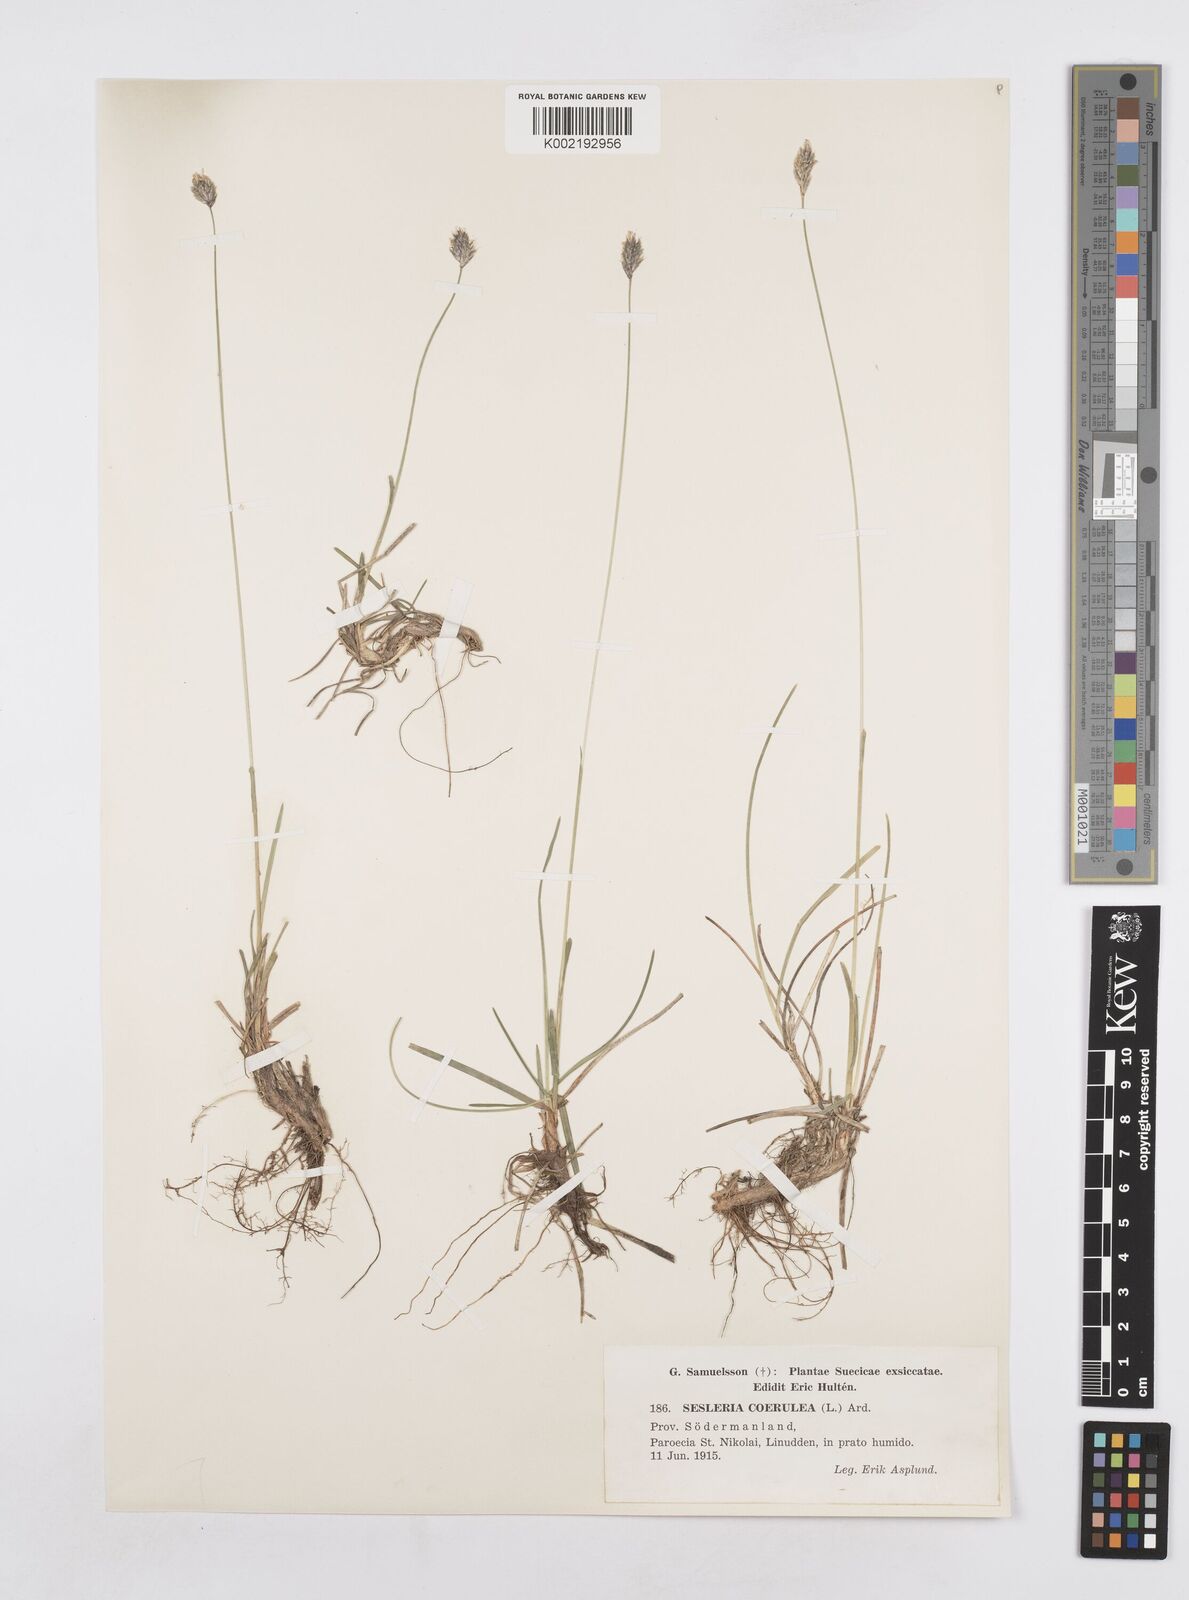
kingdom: Plantae
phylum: Tracheophyta
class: Liliopsida
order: Poales
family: Poaceae
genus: Sesleria
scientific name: Sesleria caerulea
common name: Blue moor-grass
